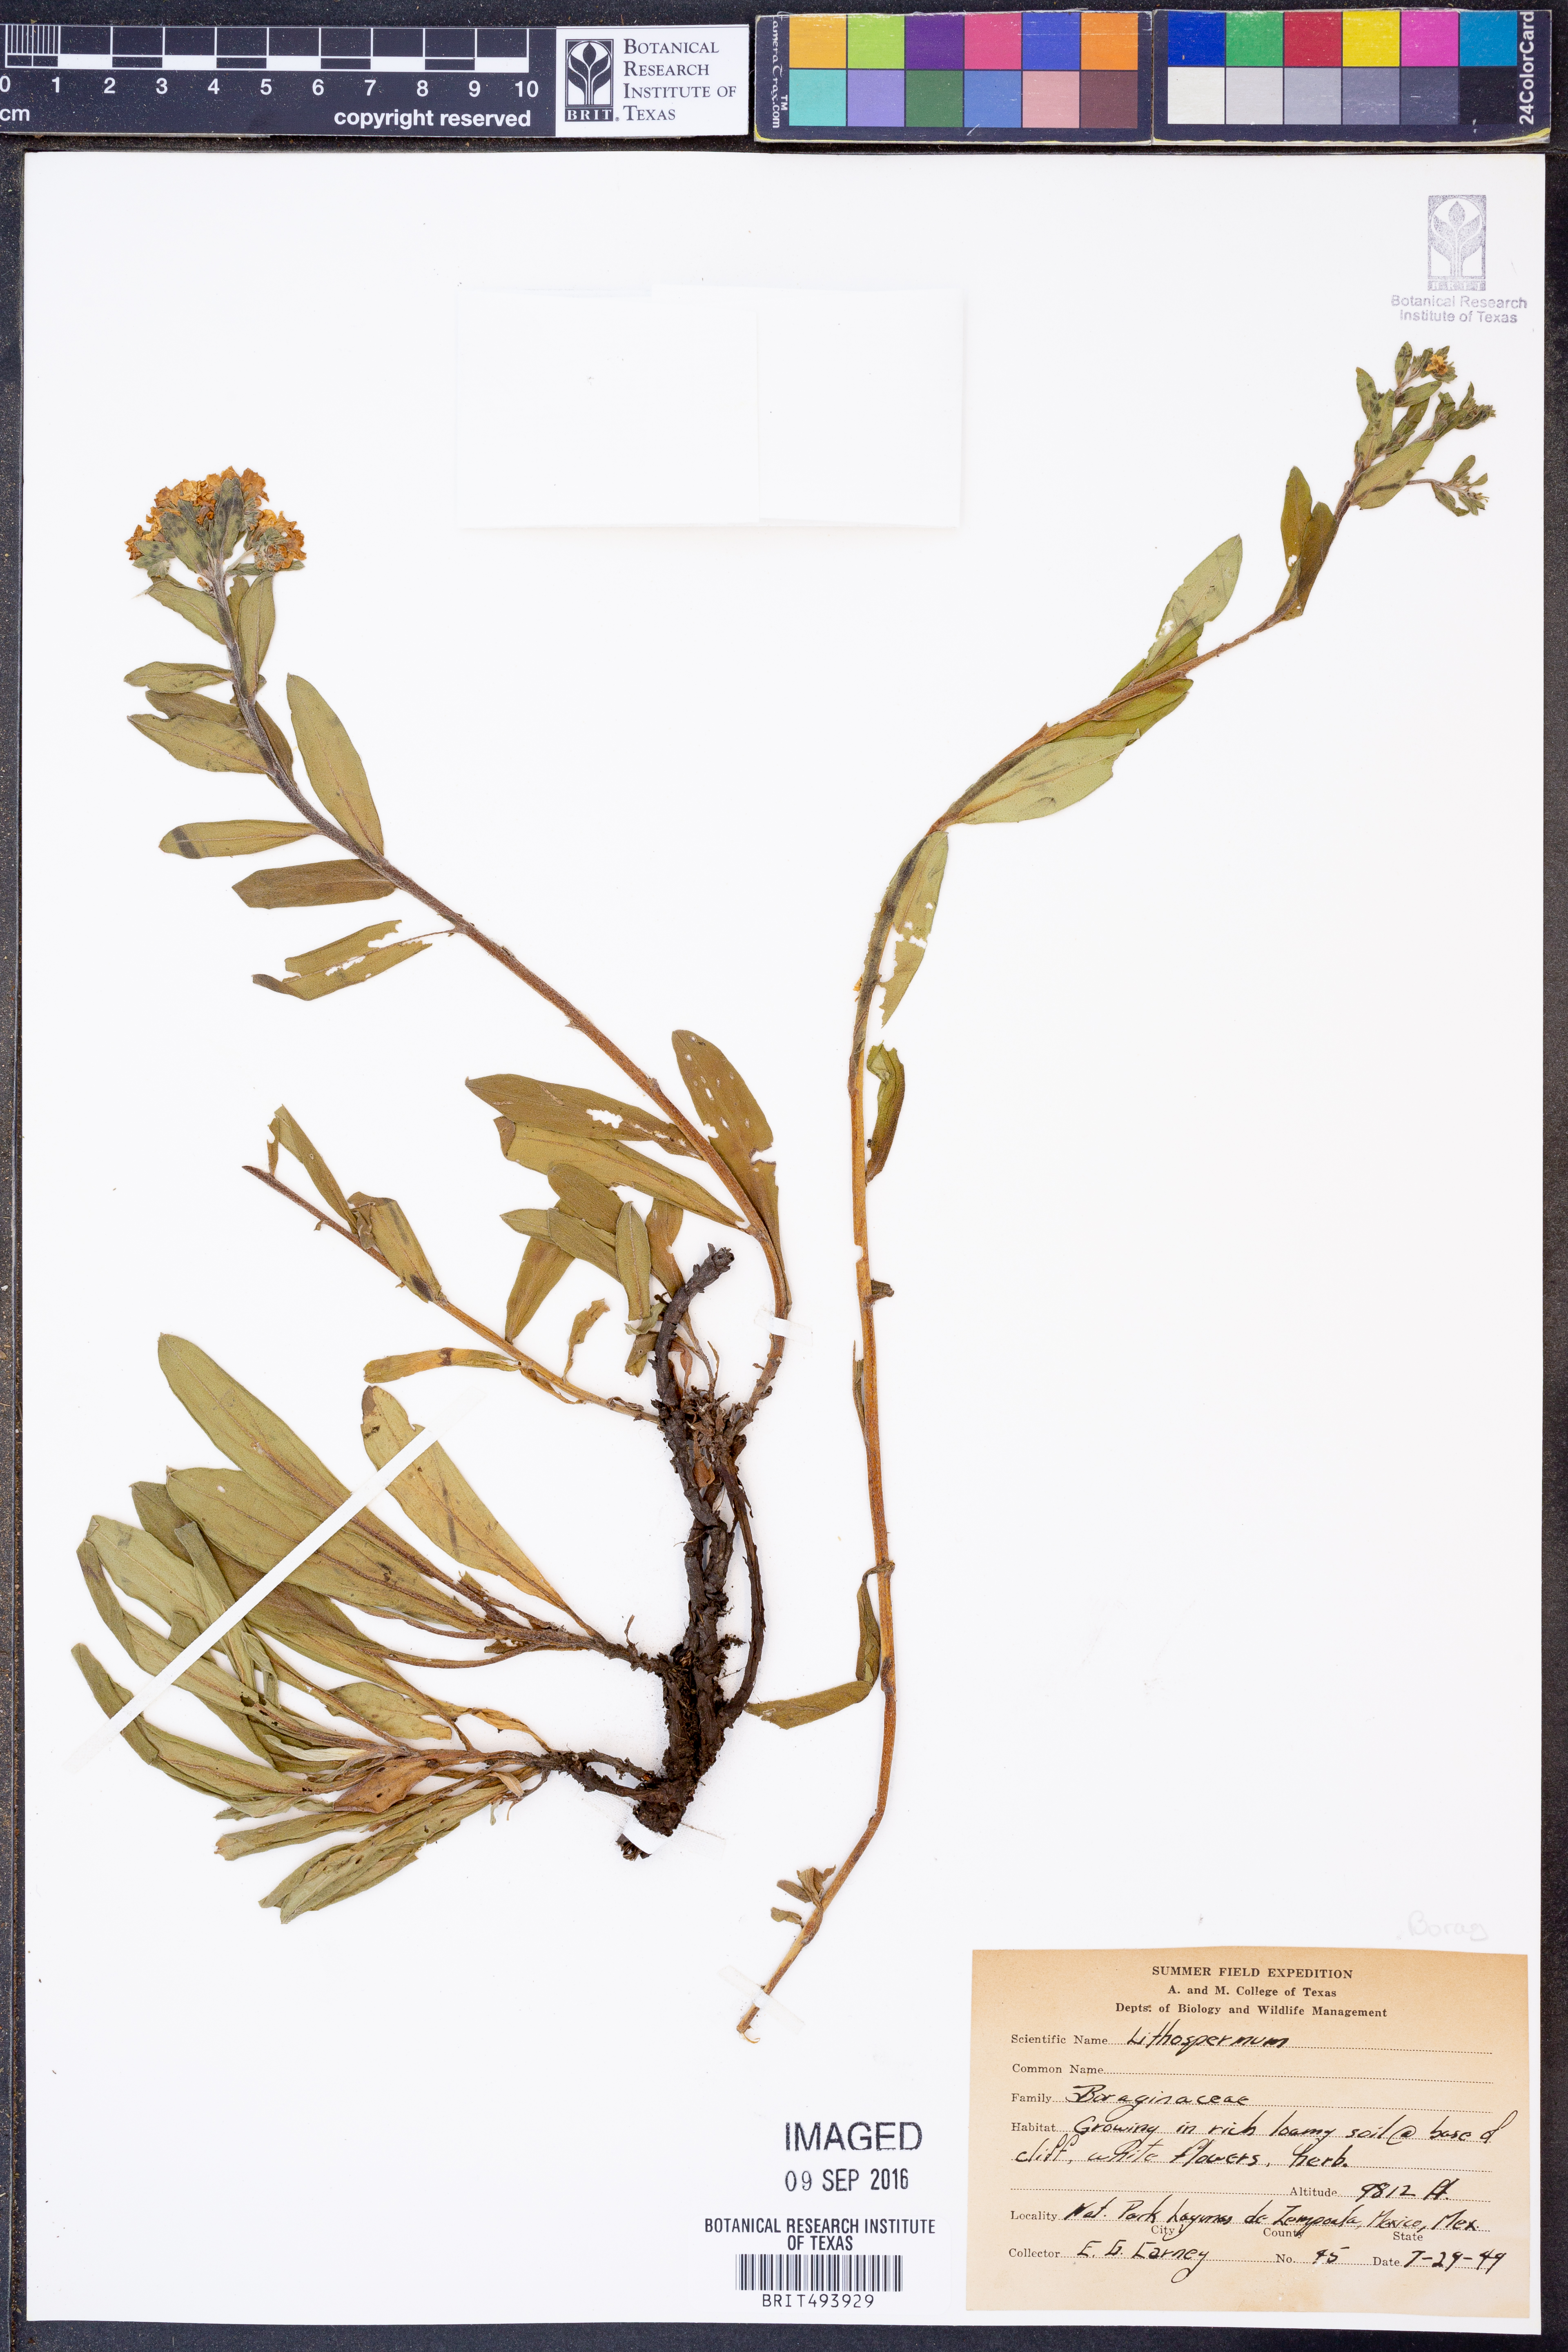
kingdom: Plantae
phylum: Tracheophyta
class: Magnoliopsida
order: Boraginales
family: Boraginaceae
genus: Lithospermum
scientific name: Lithospermum
